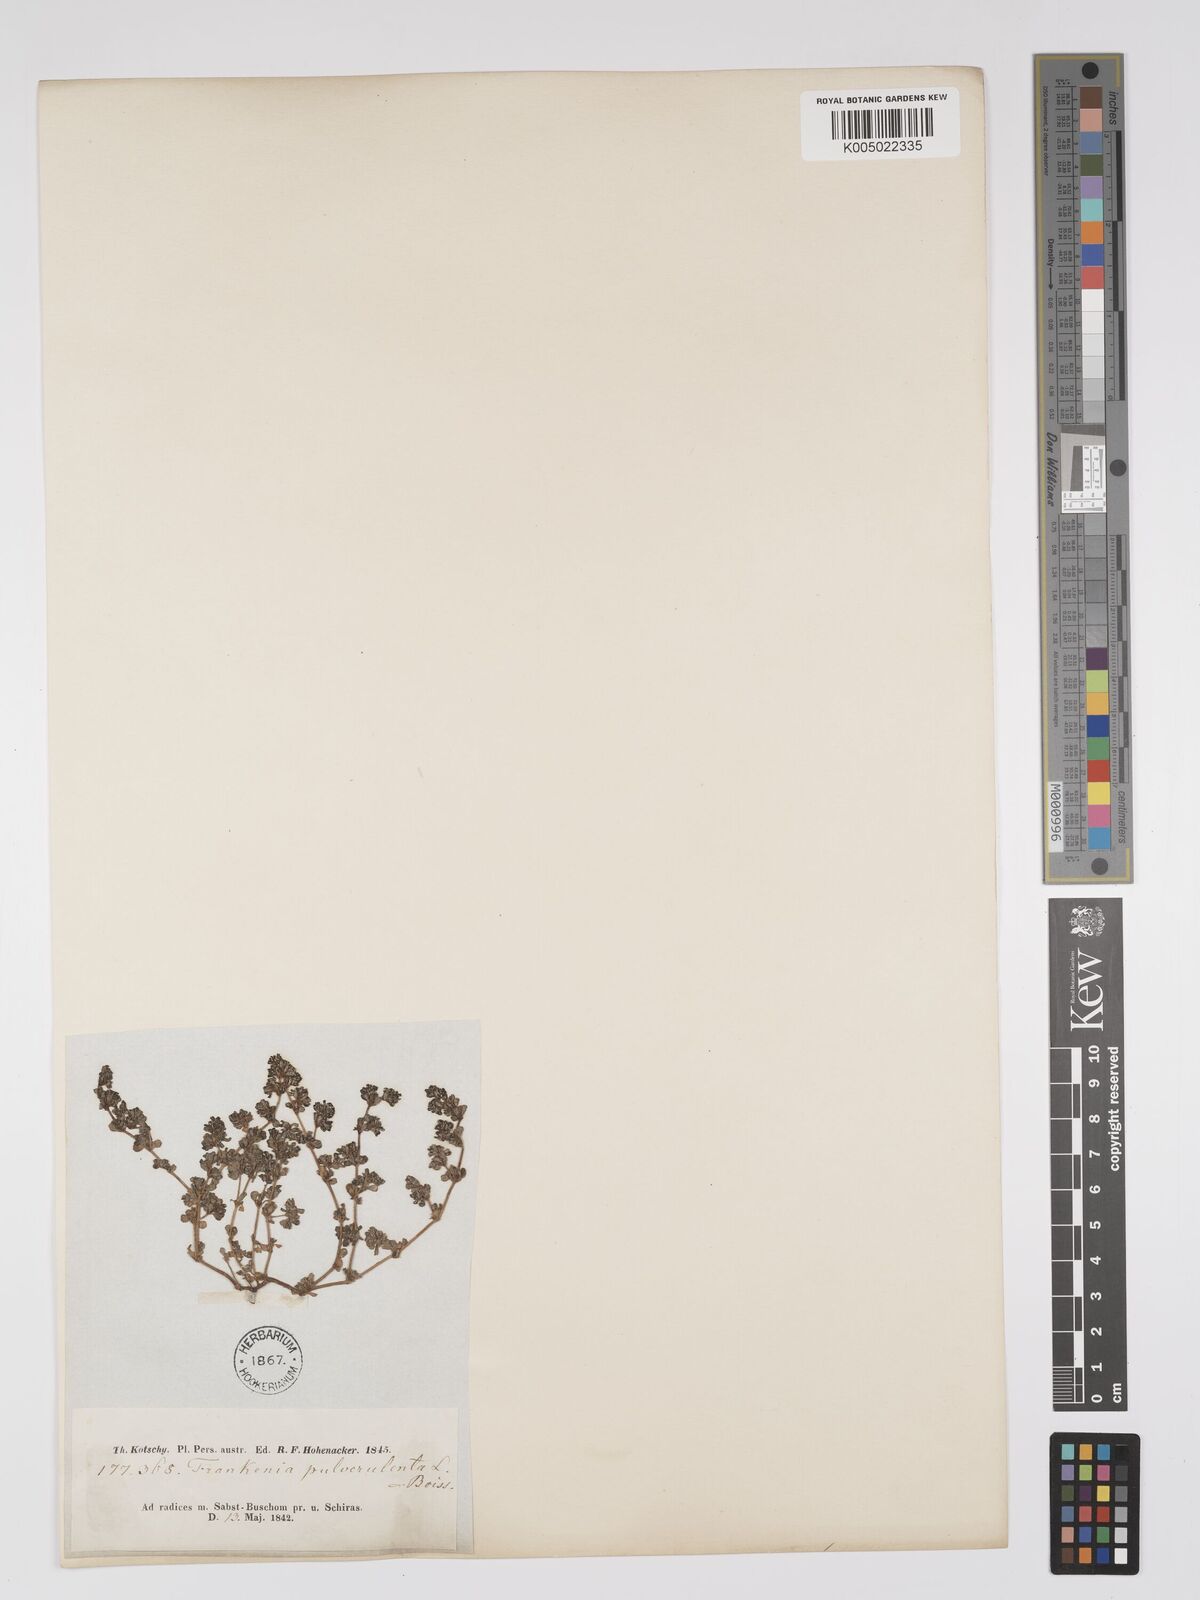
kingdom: Plantae
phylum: Tracheophyta
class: Magnoliopsida
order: Caryophyllales
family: Frankeniaceae
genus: Frankenia
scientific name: Frankenia pulverulenta
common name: European seaheath
